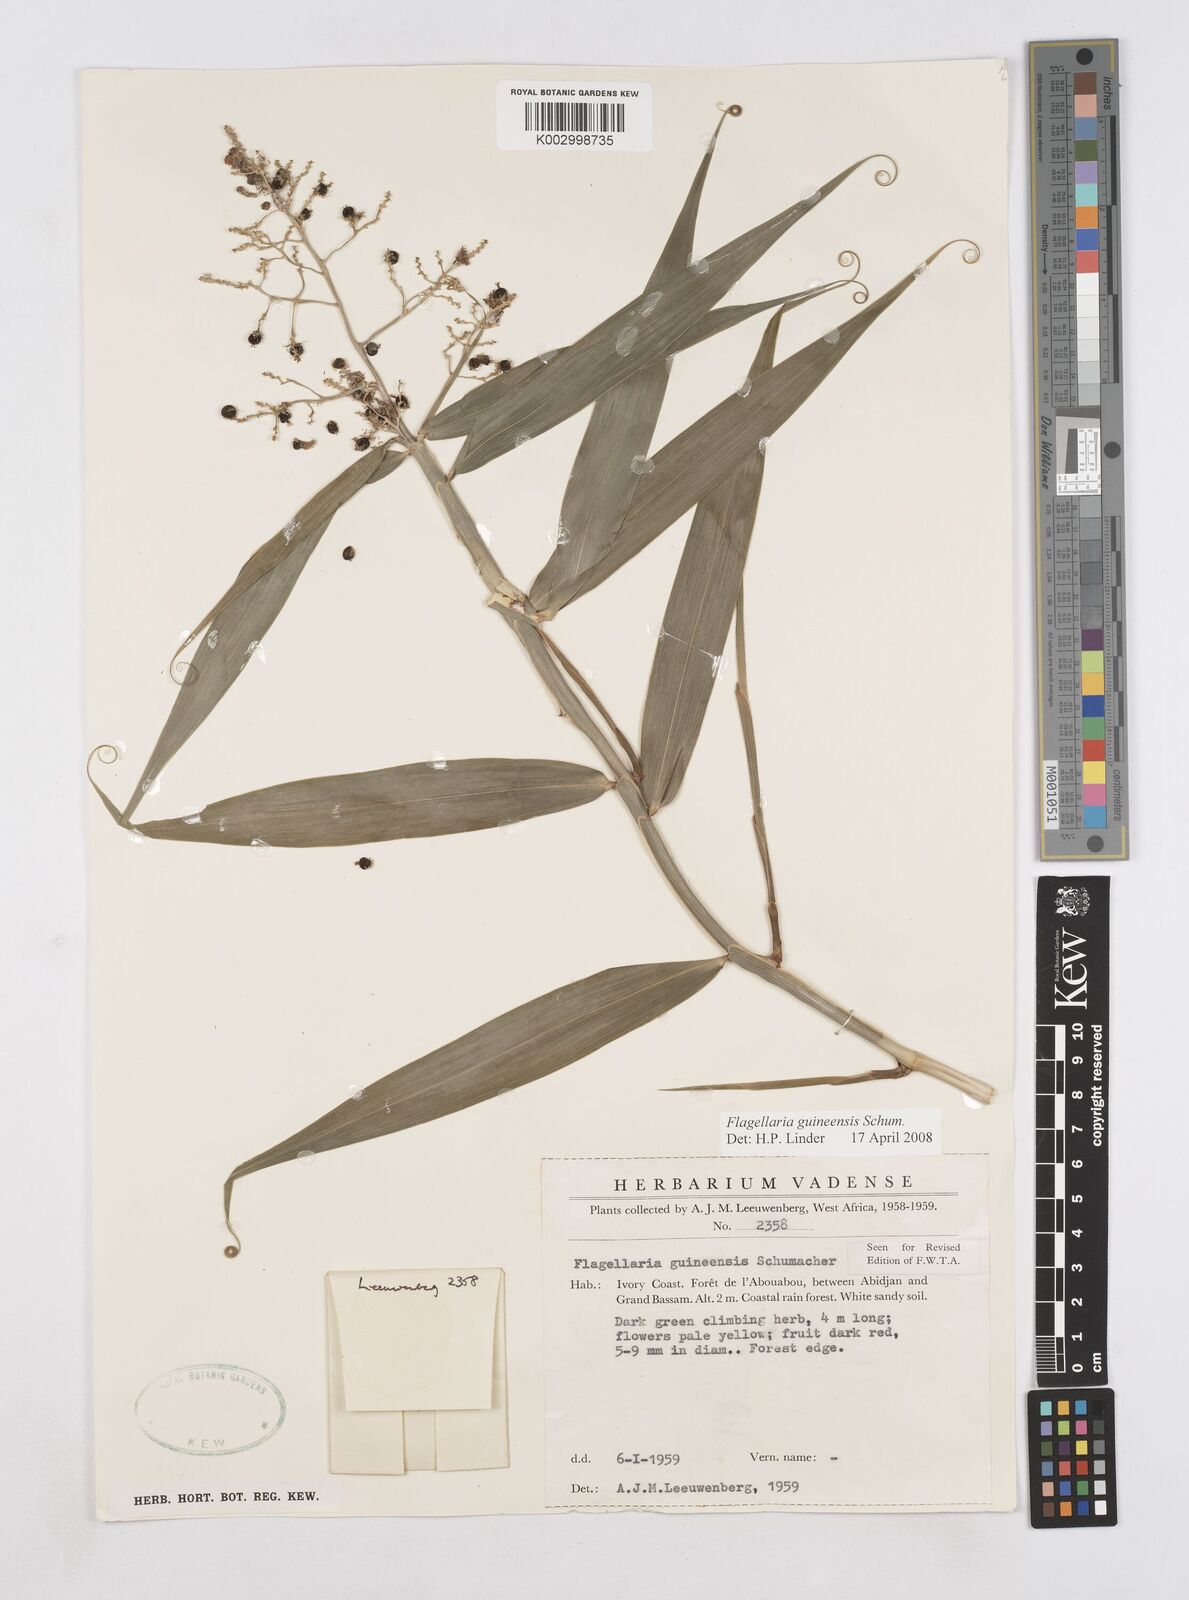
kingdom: Plantae
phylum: Tracheophyta
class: Liliopsida
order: Poales
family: Flagellariaceae
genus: Flagellaria
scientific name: Flagellaria guineensis
